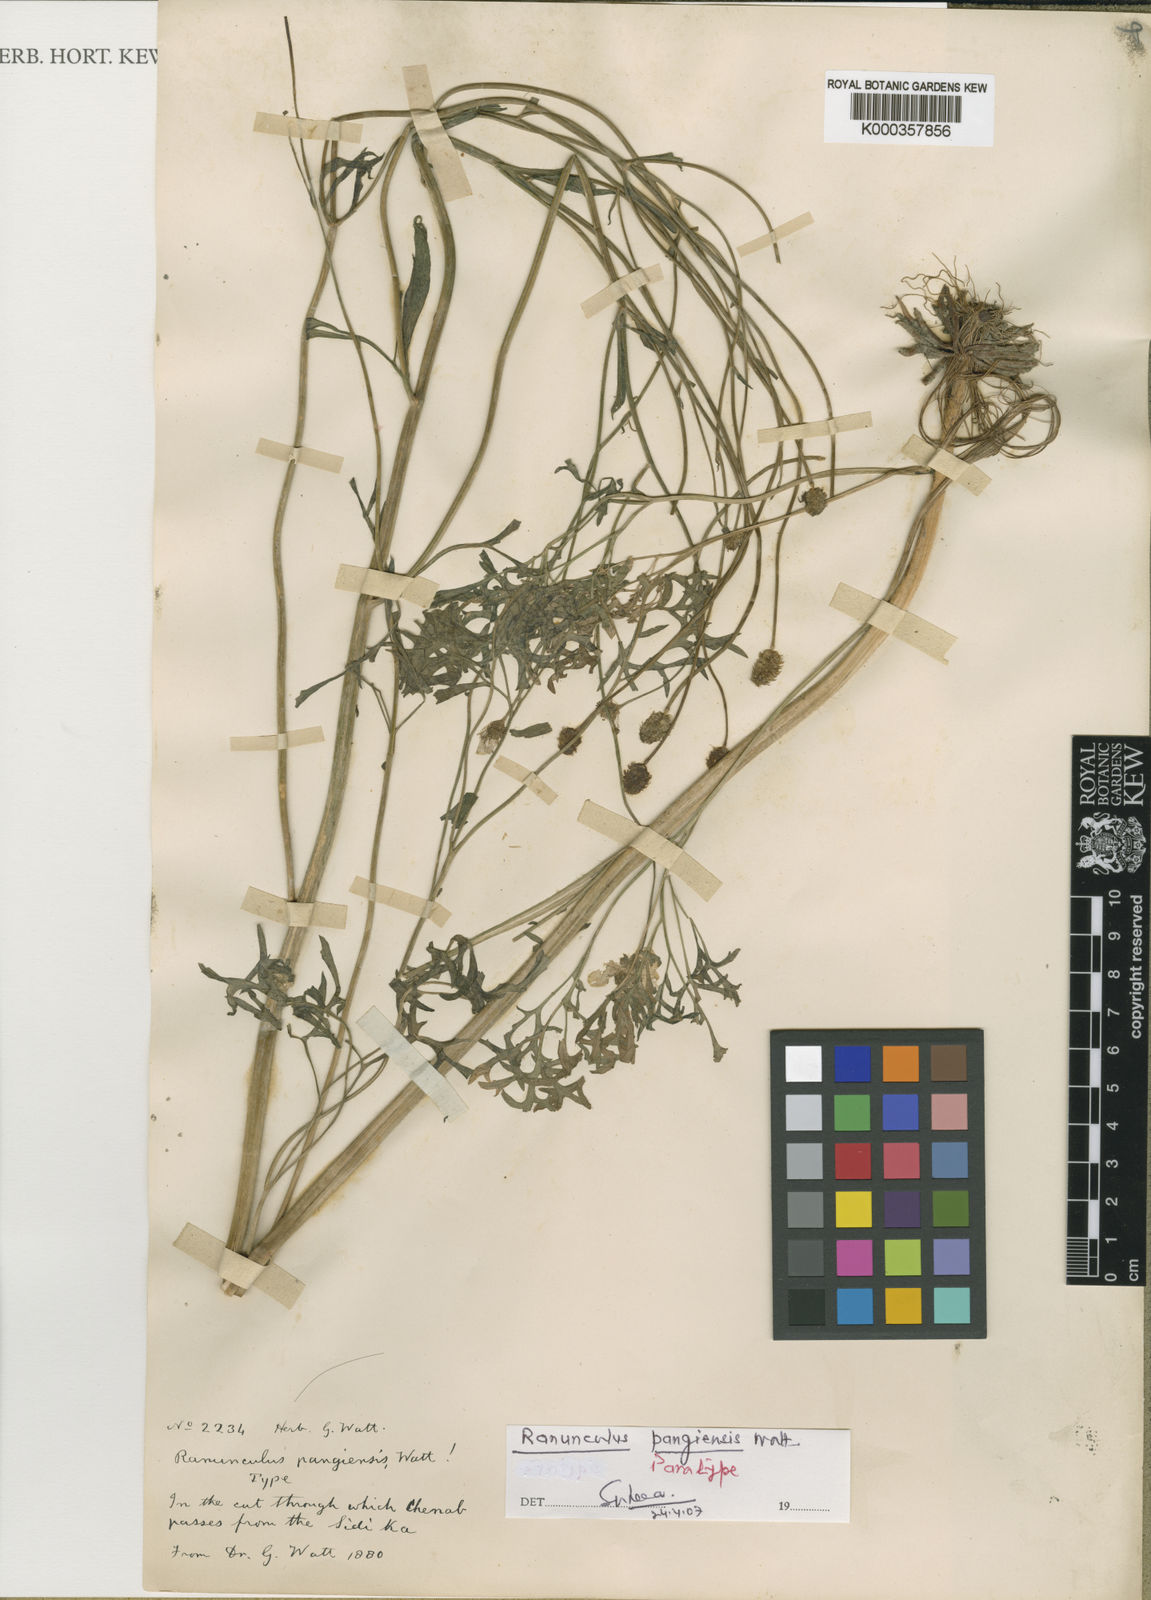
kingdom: Plantae
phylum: Tracheophyta
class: Magnoliopsida
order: Ranunculales
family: Ranunculaceae
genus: Ranunculus
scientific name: Ranunculus pangiensis
